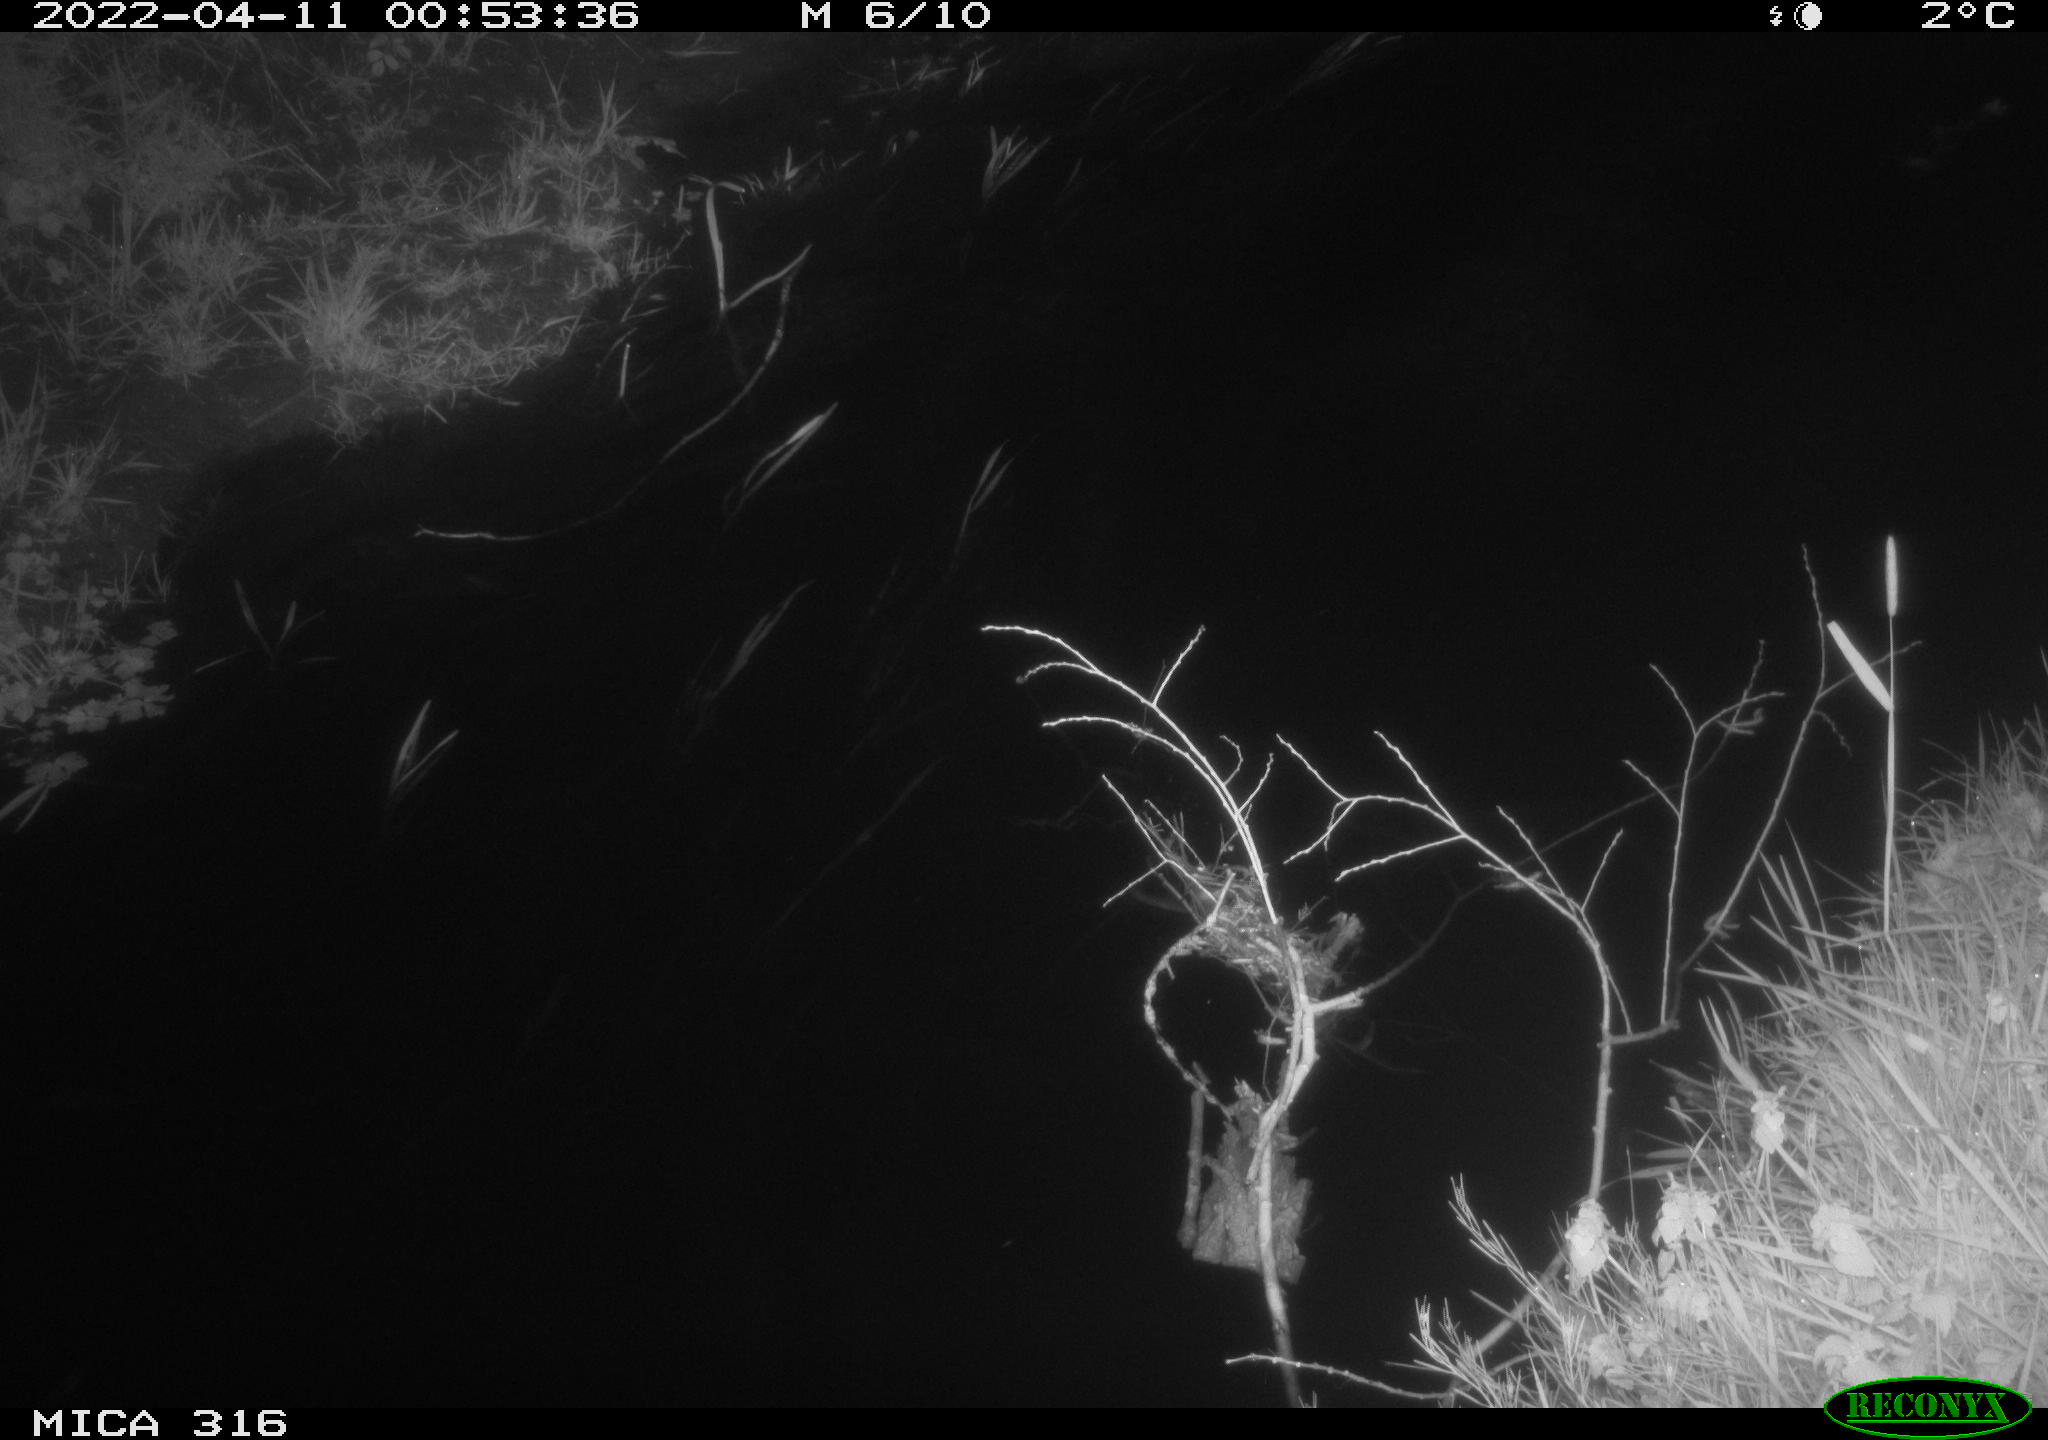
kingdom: Animalia
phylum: Chordata
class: Aves
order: Anseriformes
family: Anatidae
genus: Anas
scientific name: Anas platyrhynchos
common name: Mallard
